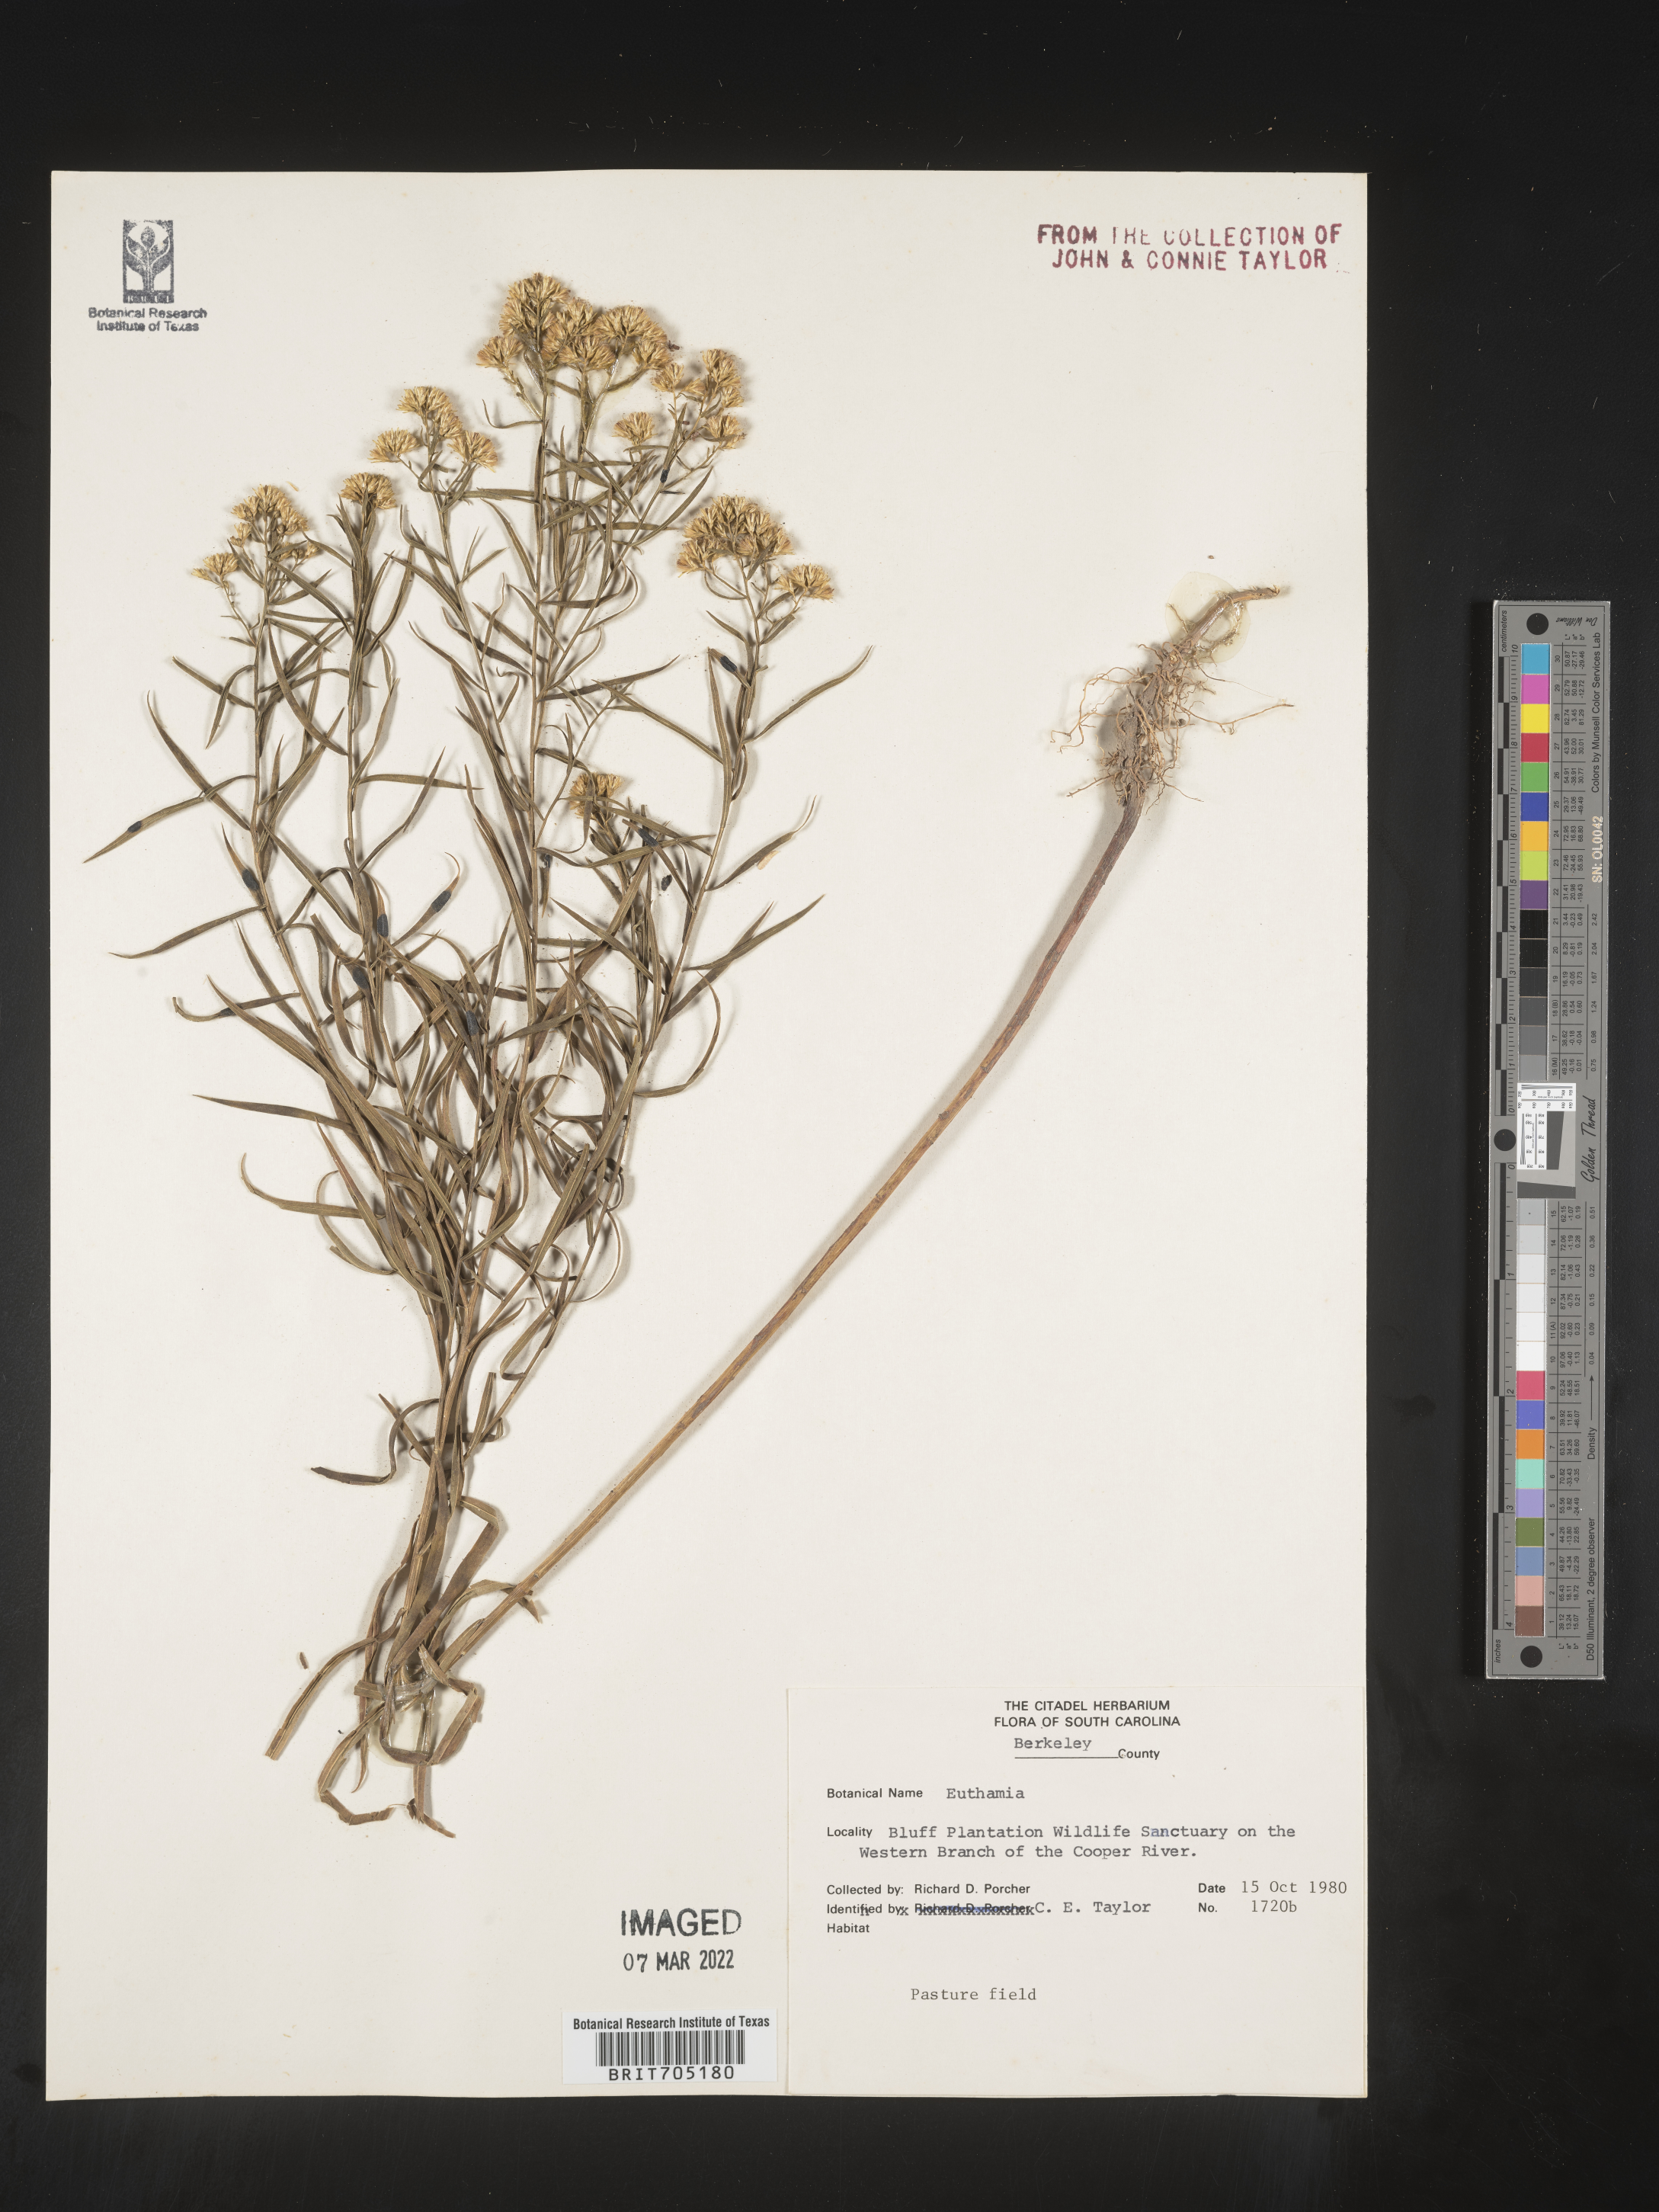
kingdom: Plantae
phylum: Tracheophyta
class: Magnoliopsida
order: Asterales
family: Asteraceae
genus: Euthamia
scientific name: Euthamia
